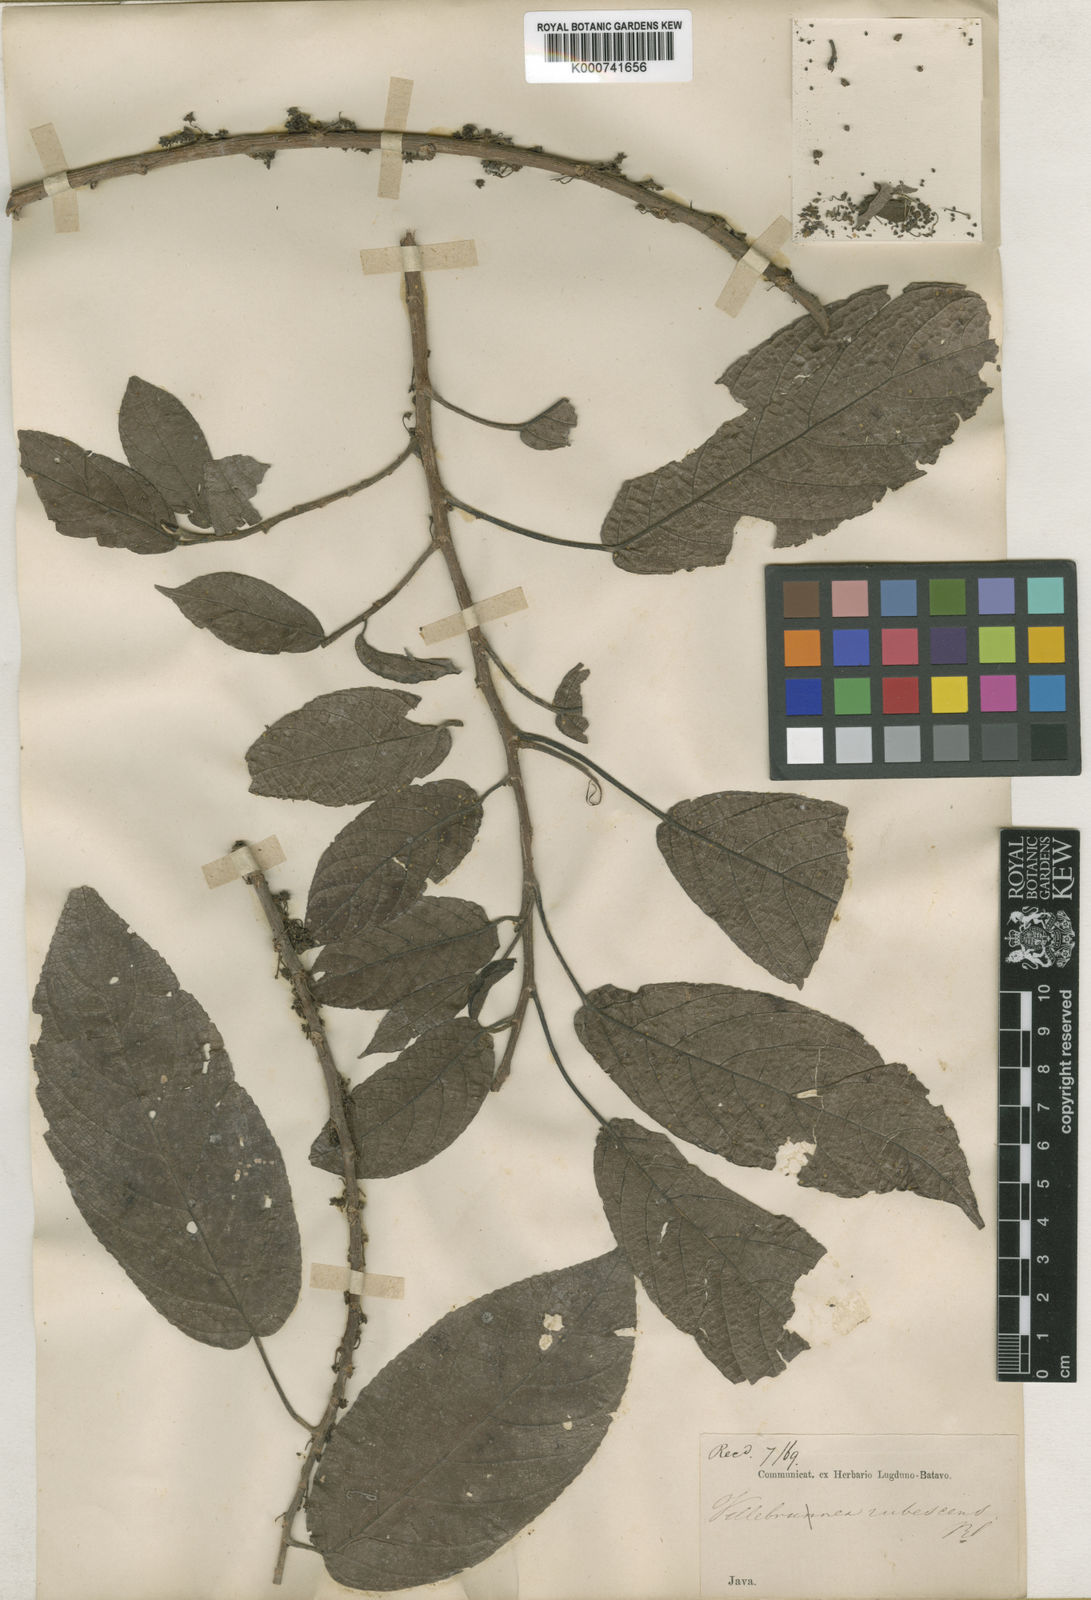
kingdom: Plantae
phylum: Tracheophyta
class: Magnoliopsida
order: Rosales
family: Urticaceae
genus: Oreocnide
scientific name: Oreocnide rubescens
